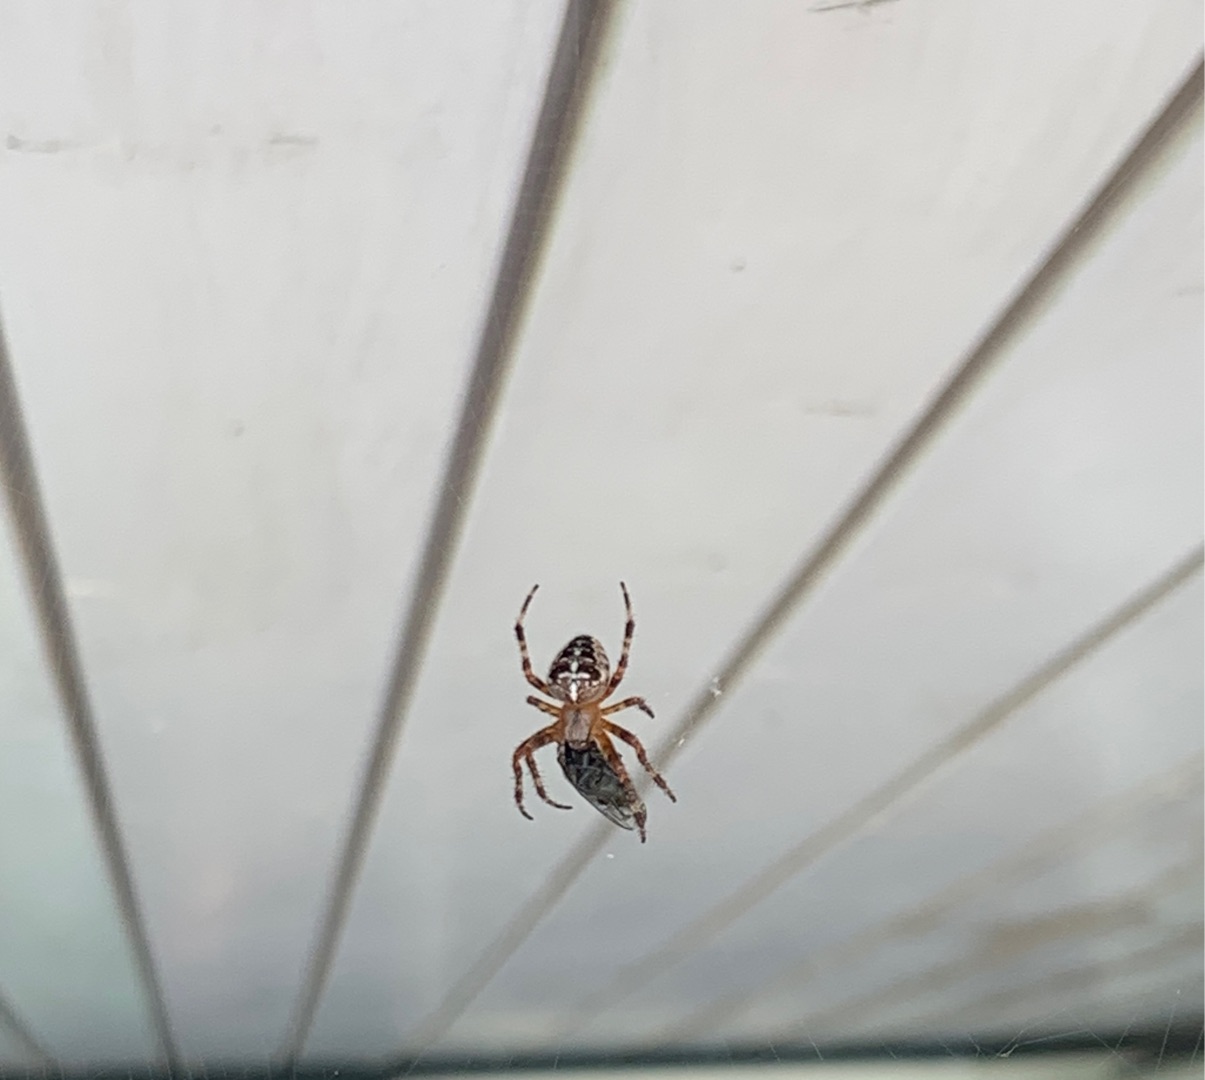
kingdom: Animalia
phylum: Arthropoda
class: Arachnida
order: Araneae
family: Araneidae
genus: Araneus
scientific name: Araneus diadematus
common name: Korsedderkop
